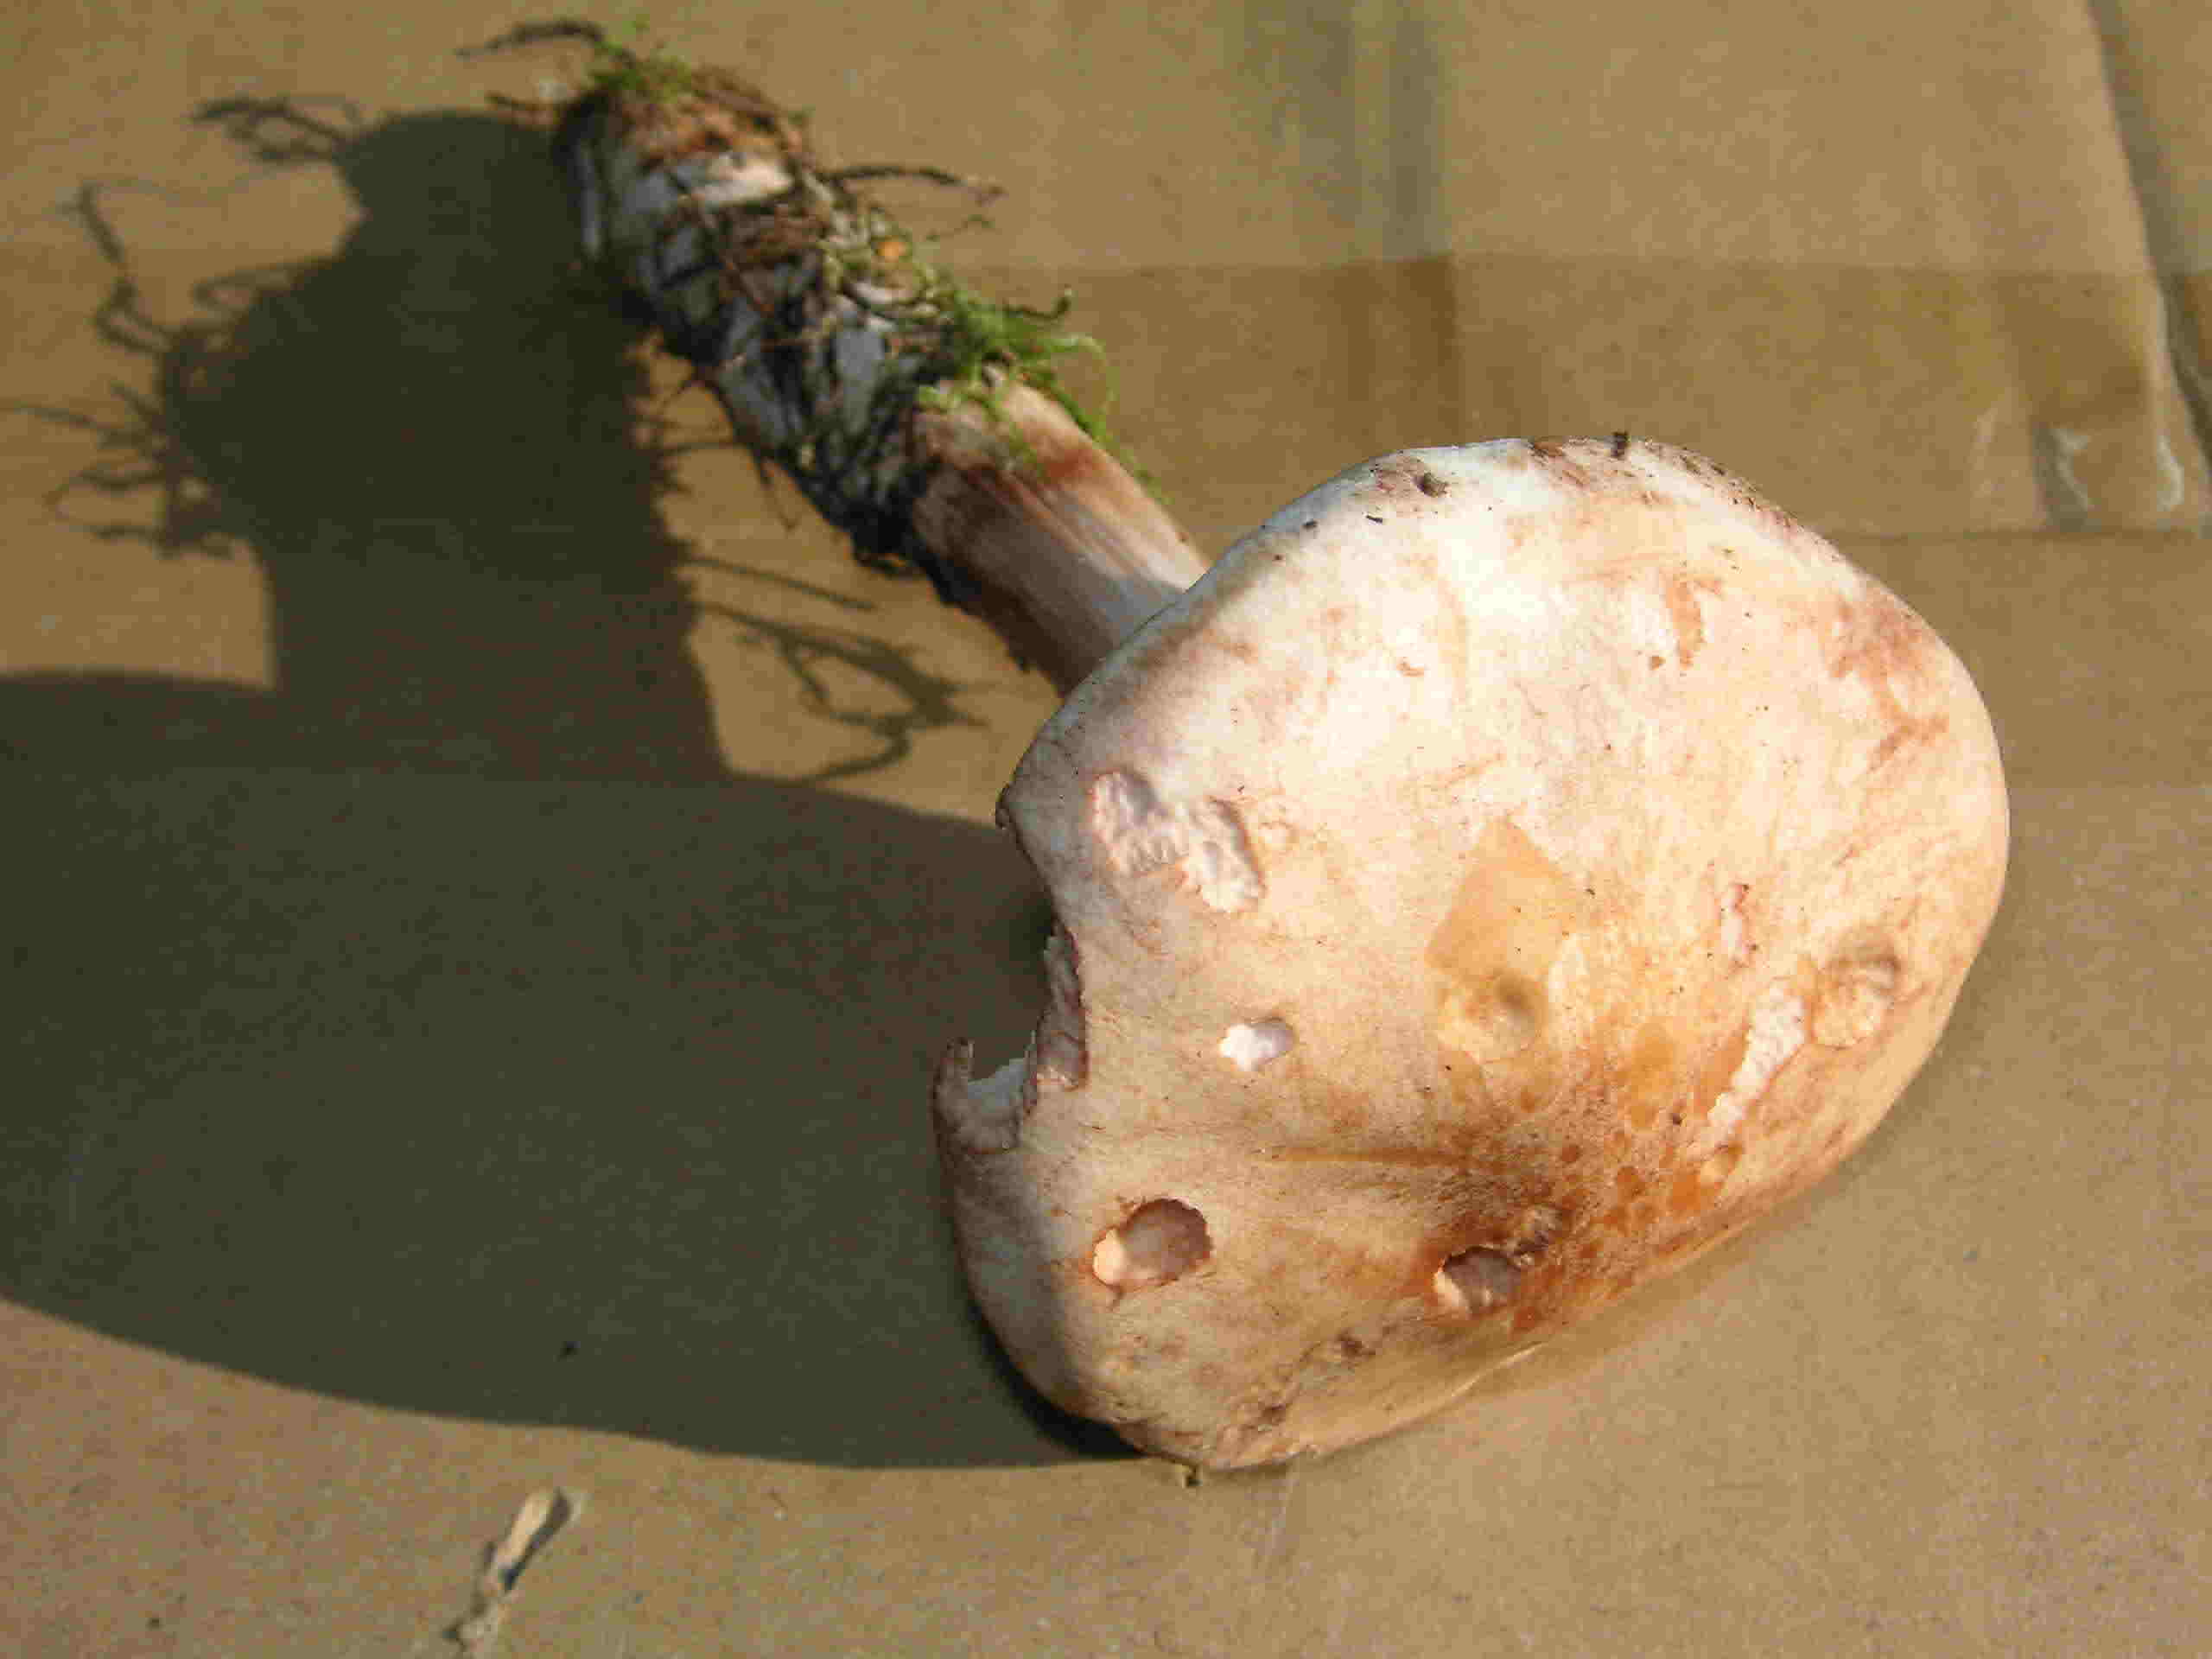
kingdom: Fungi
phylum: Basidiomycota
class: Agaricomycetes
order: Agaricales
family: Omphalotaceae
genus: Rhodocollybia
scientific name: Rhodocollybia maculata
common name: plettet fladhat
